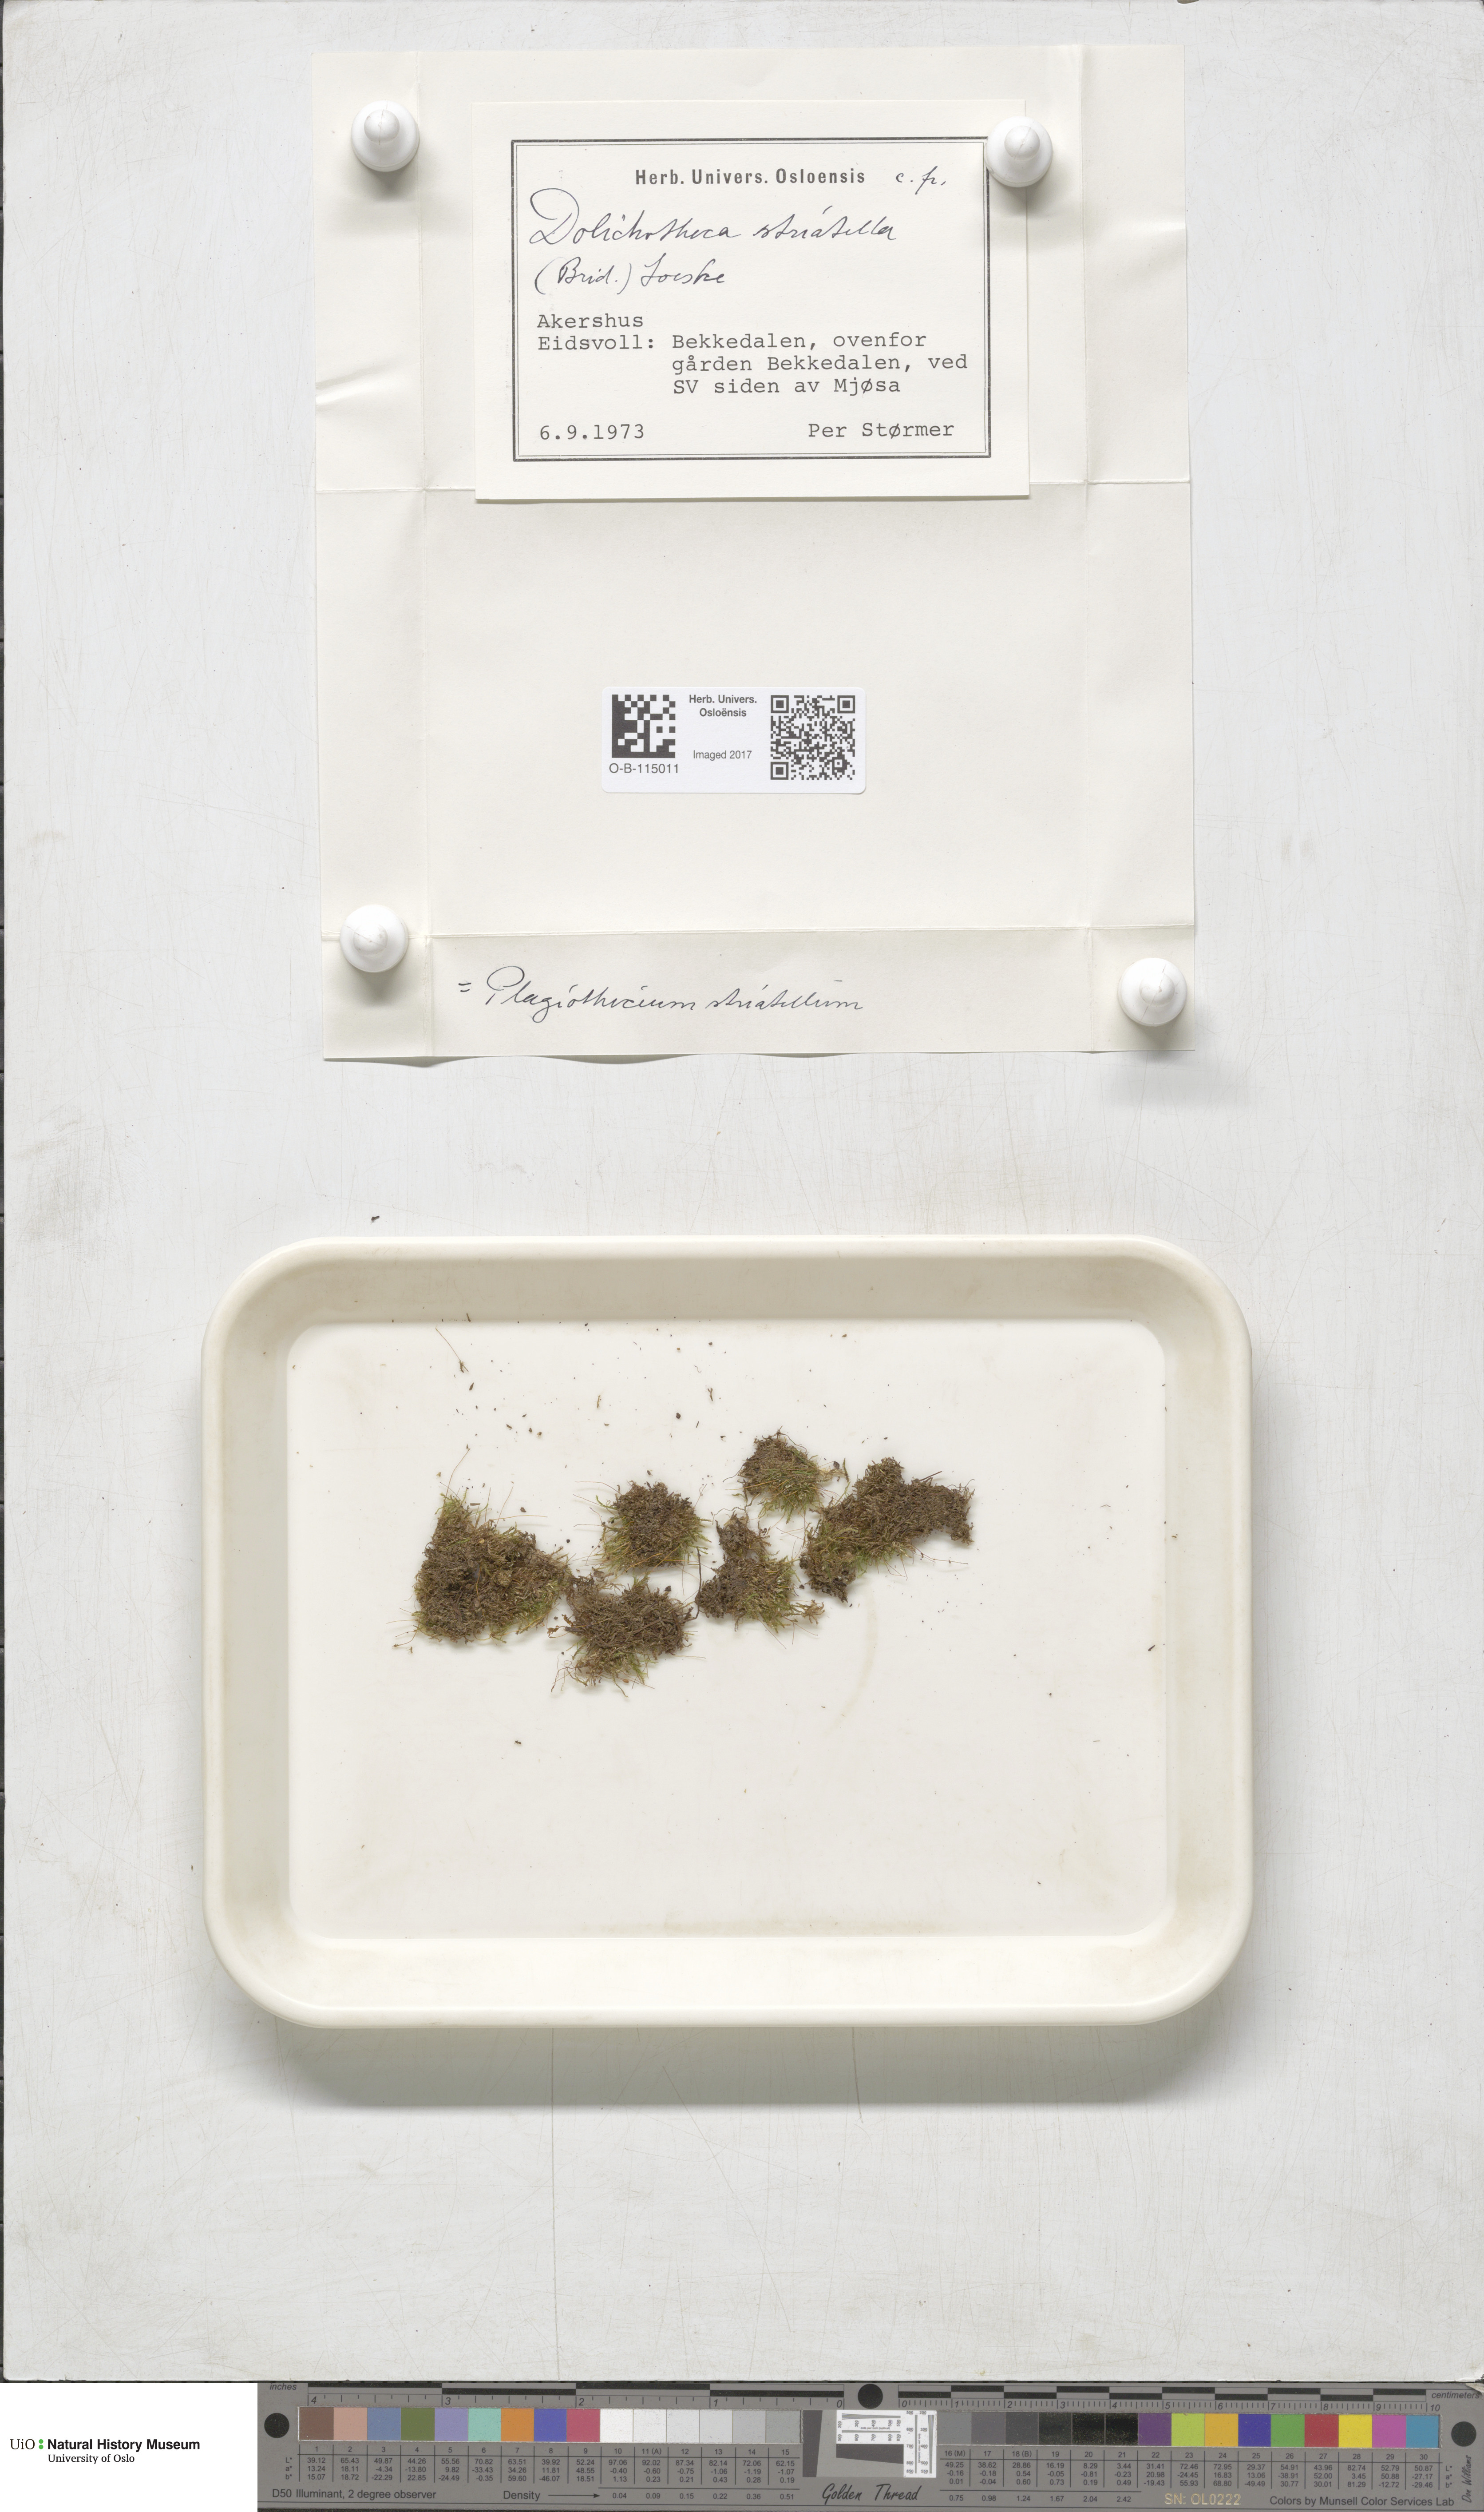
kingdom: Plantae
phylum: Bryophyta
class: Bryopsida
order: Hypnales
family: Plagiotheciaceae
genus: Herzogiella
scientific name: Herzogiella striatella
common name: Muhlenbeck's feather-moss
